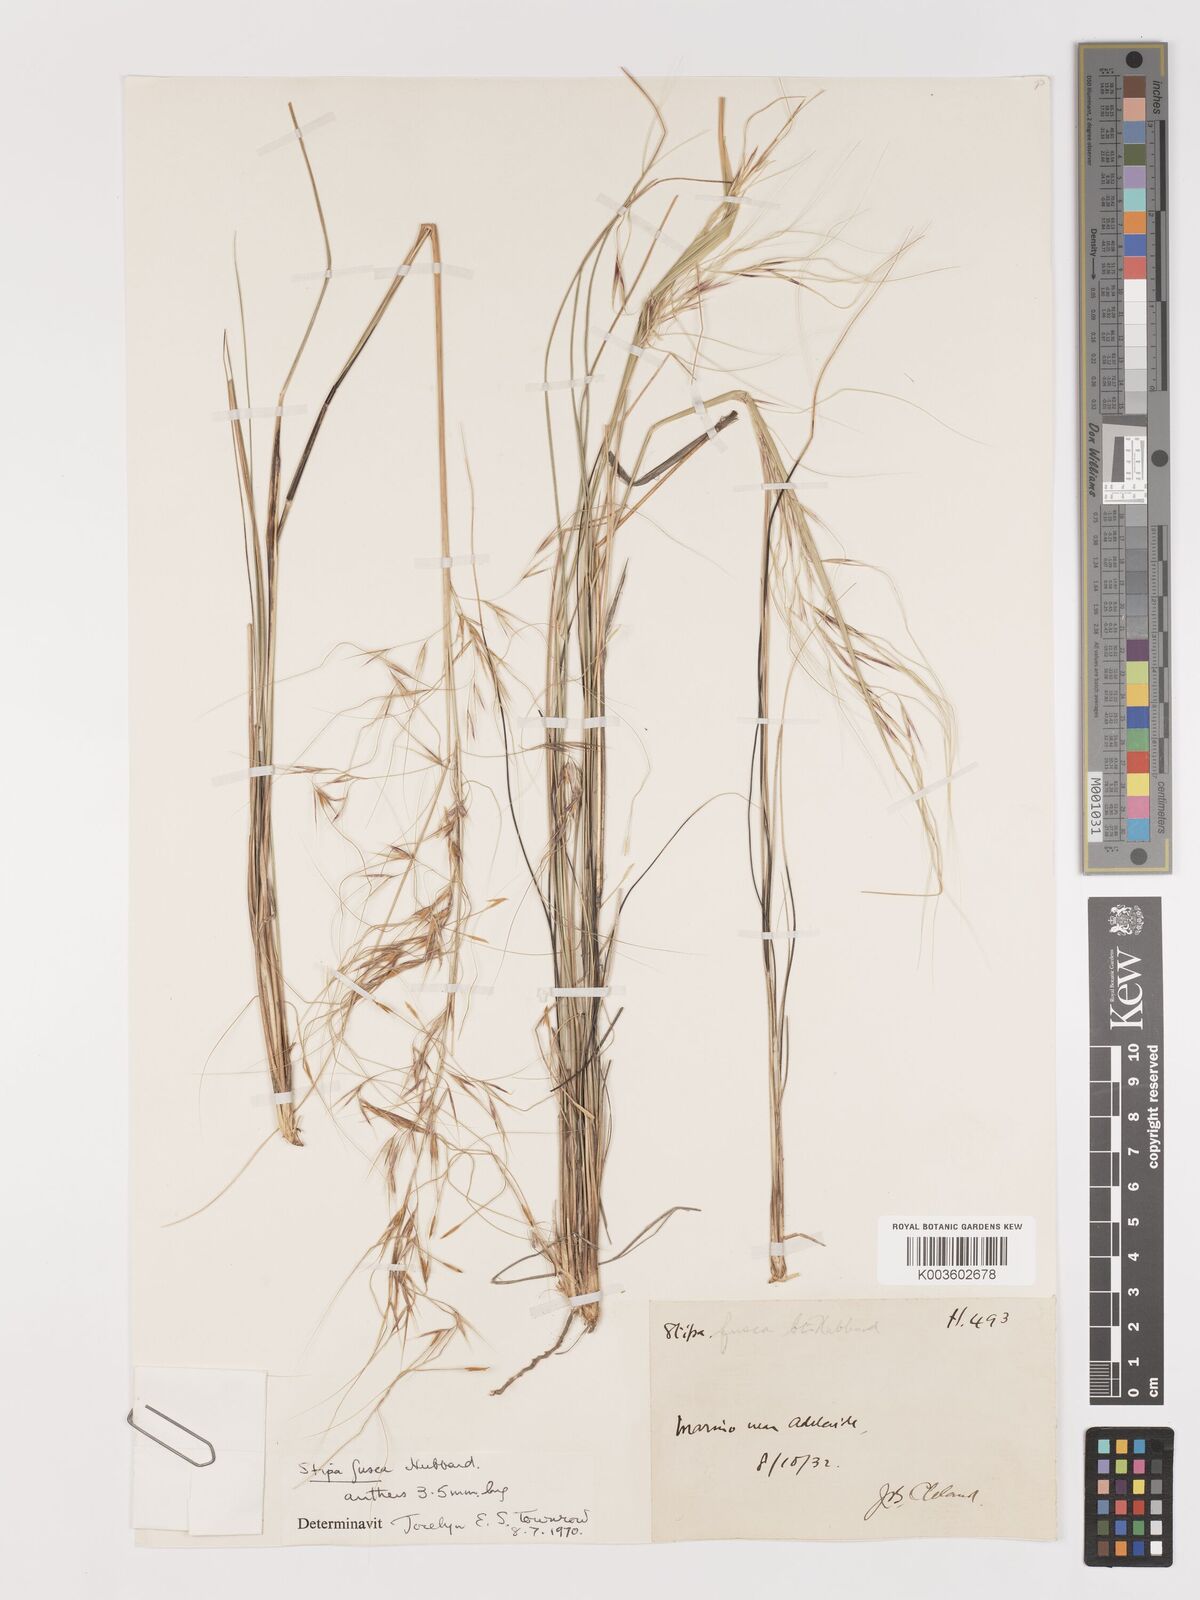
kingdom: Plantae
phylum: Tracheophyta
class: Liliopsida
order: Poales
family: Poaceae
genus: Austrostipa
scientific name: Austrostipa eremophila
